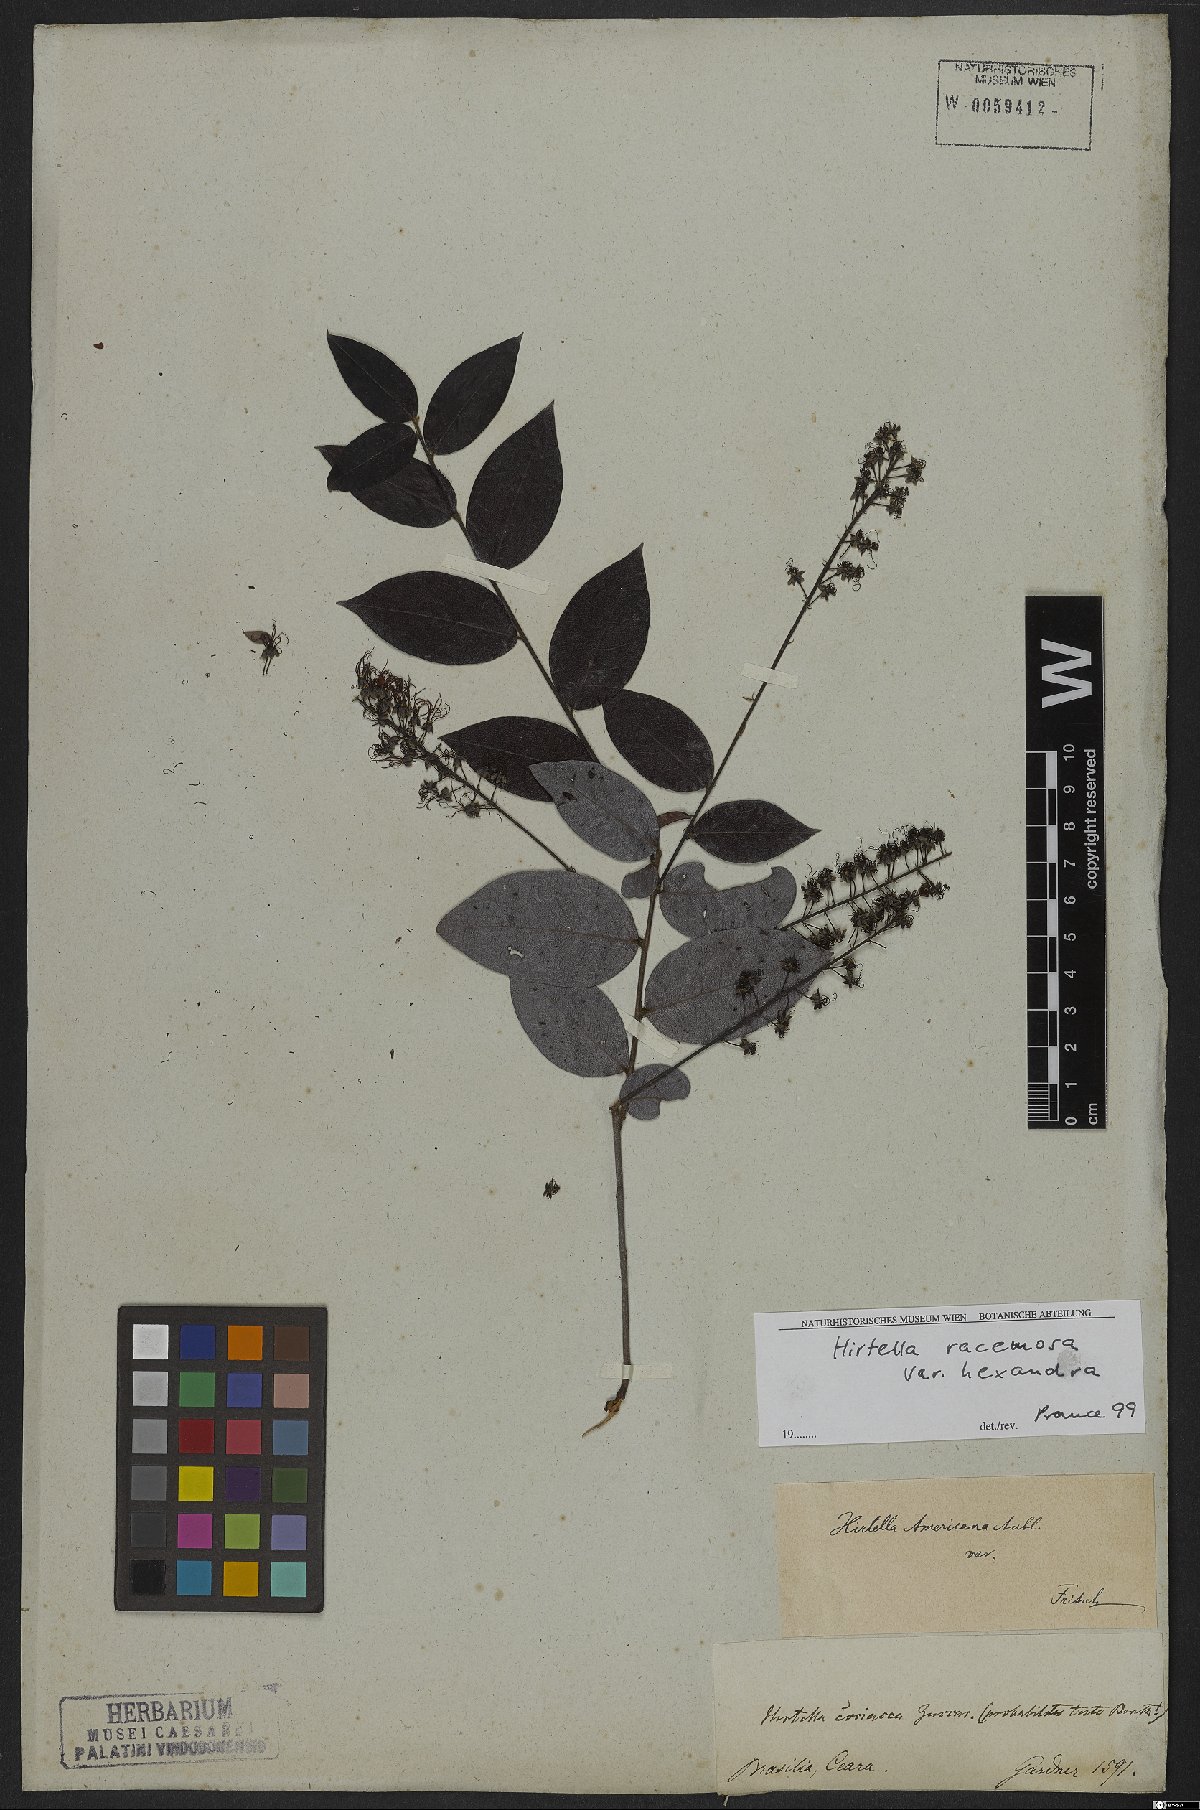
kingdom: Plantae
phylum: Tracheophyta
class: Magnoliopsida
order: Malpighiales
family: Chrysobalanaceae
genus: Hirtella
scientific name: Hirtella racemosa
